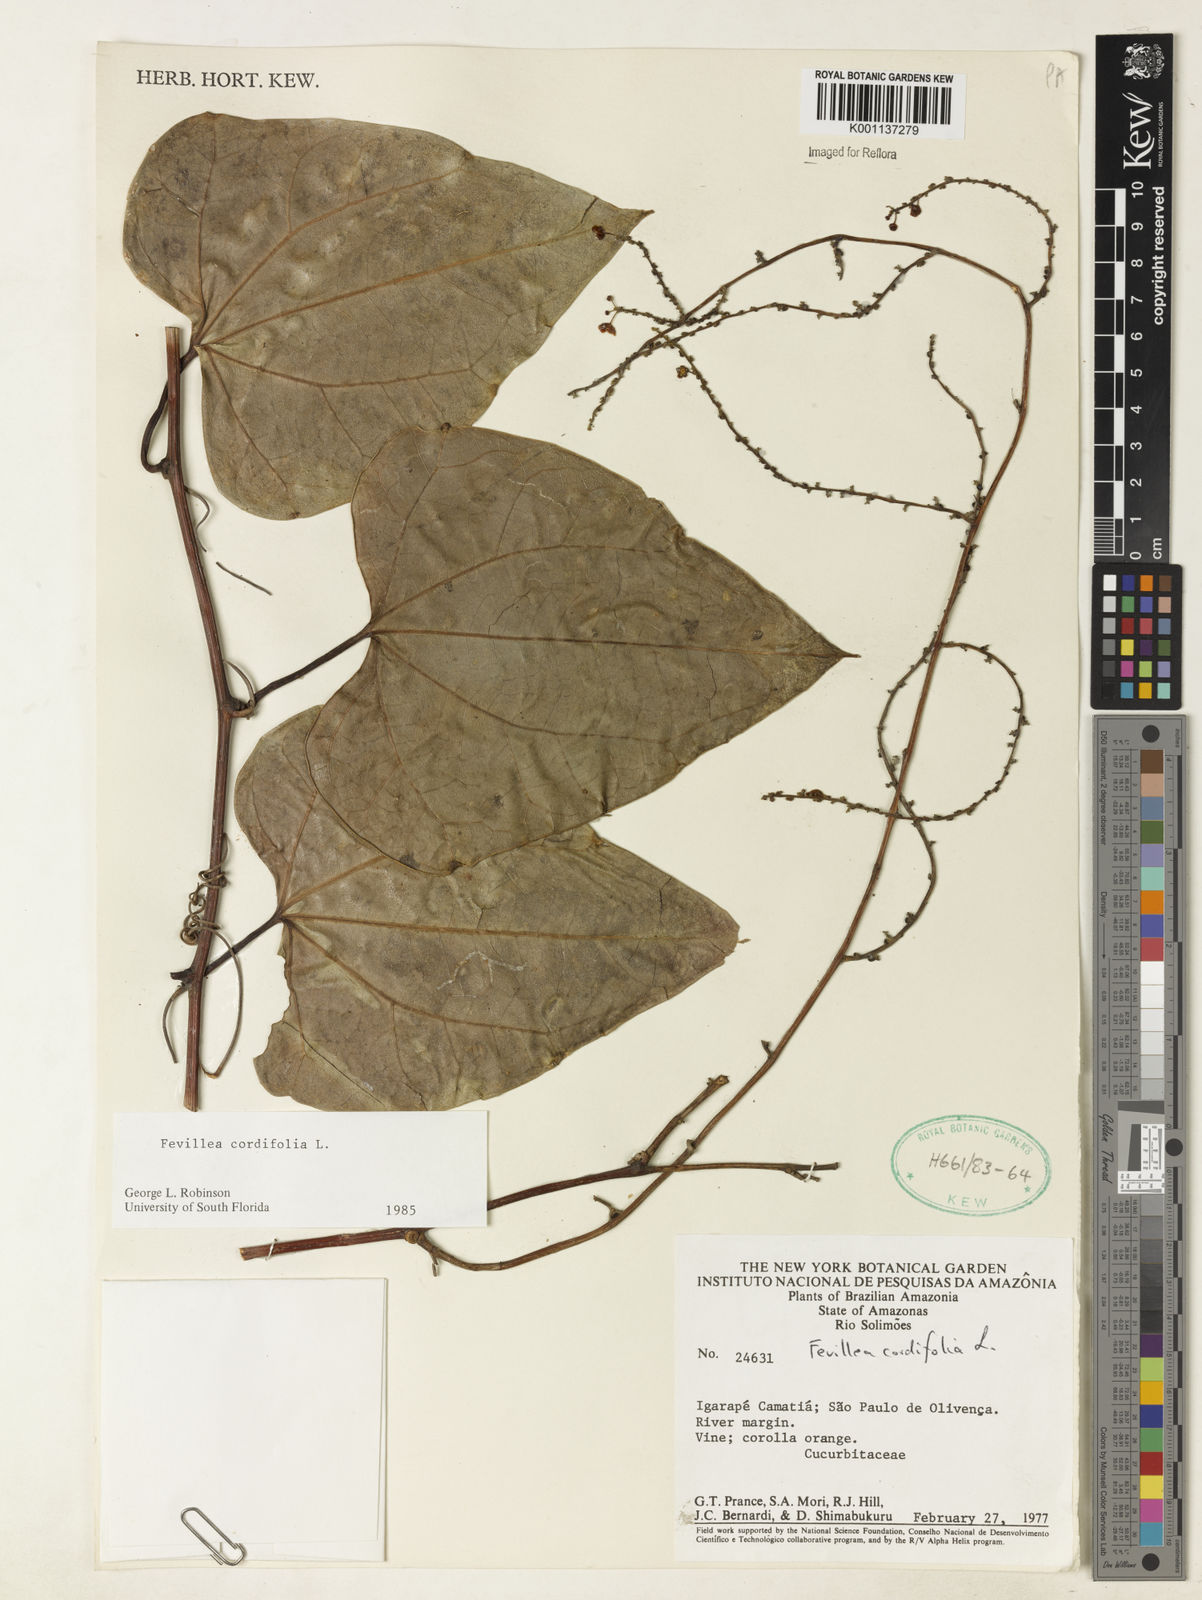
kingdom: Plantae
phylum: Tracheophyta
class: Magnoliopsida
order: Cucurbitales
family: Cucurbitaceae
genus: Fevillea
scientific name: Fevillea cordifolia
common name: Antidote-vine
